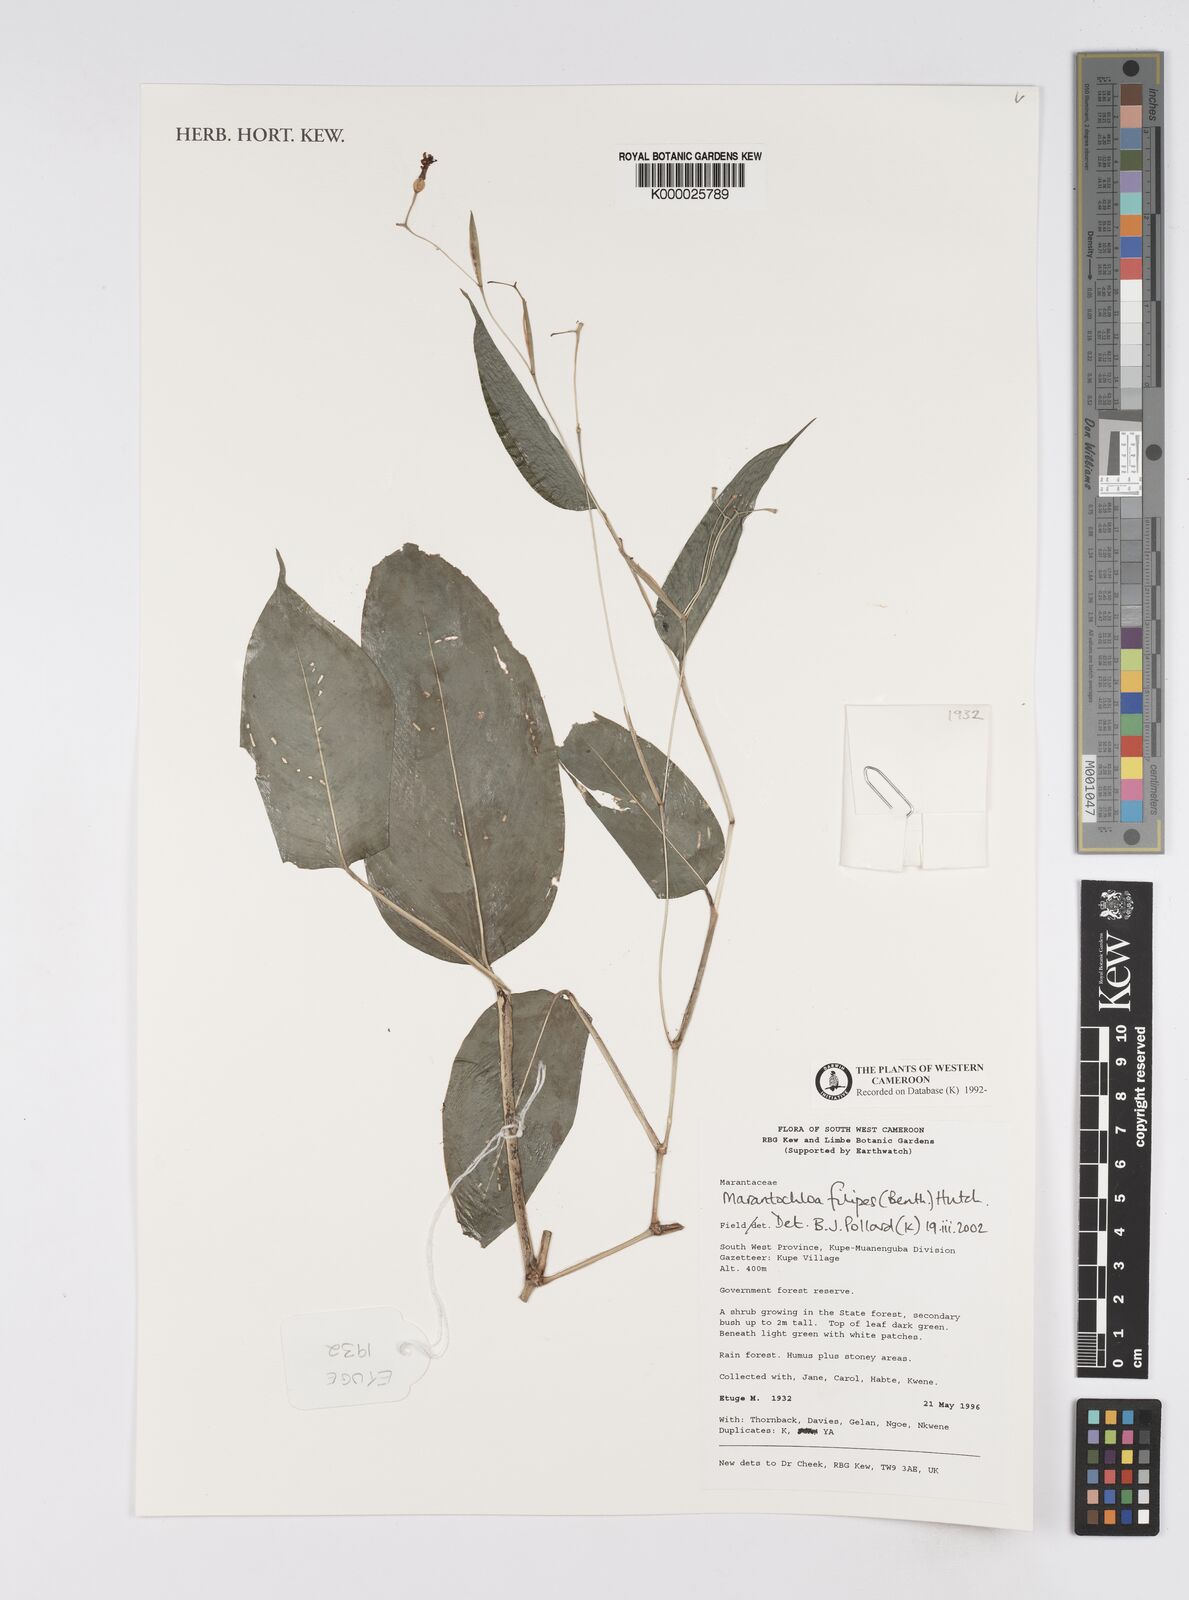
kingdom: Plantae
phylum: Tracheophyta
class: Liliopsida
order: Zingiberales
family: Marantaceae
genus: Marantochloa
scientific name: Marantochloa filipes
